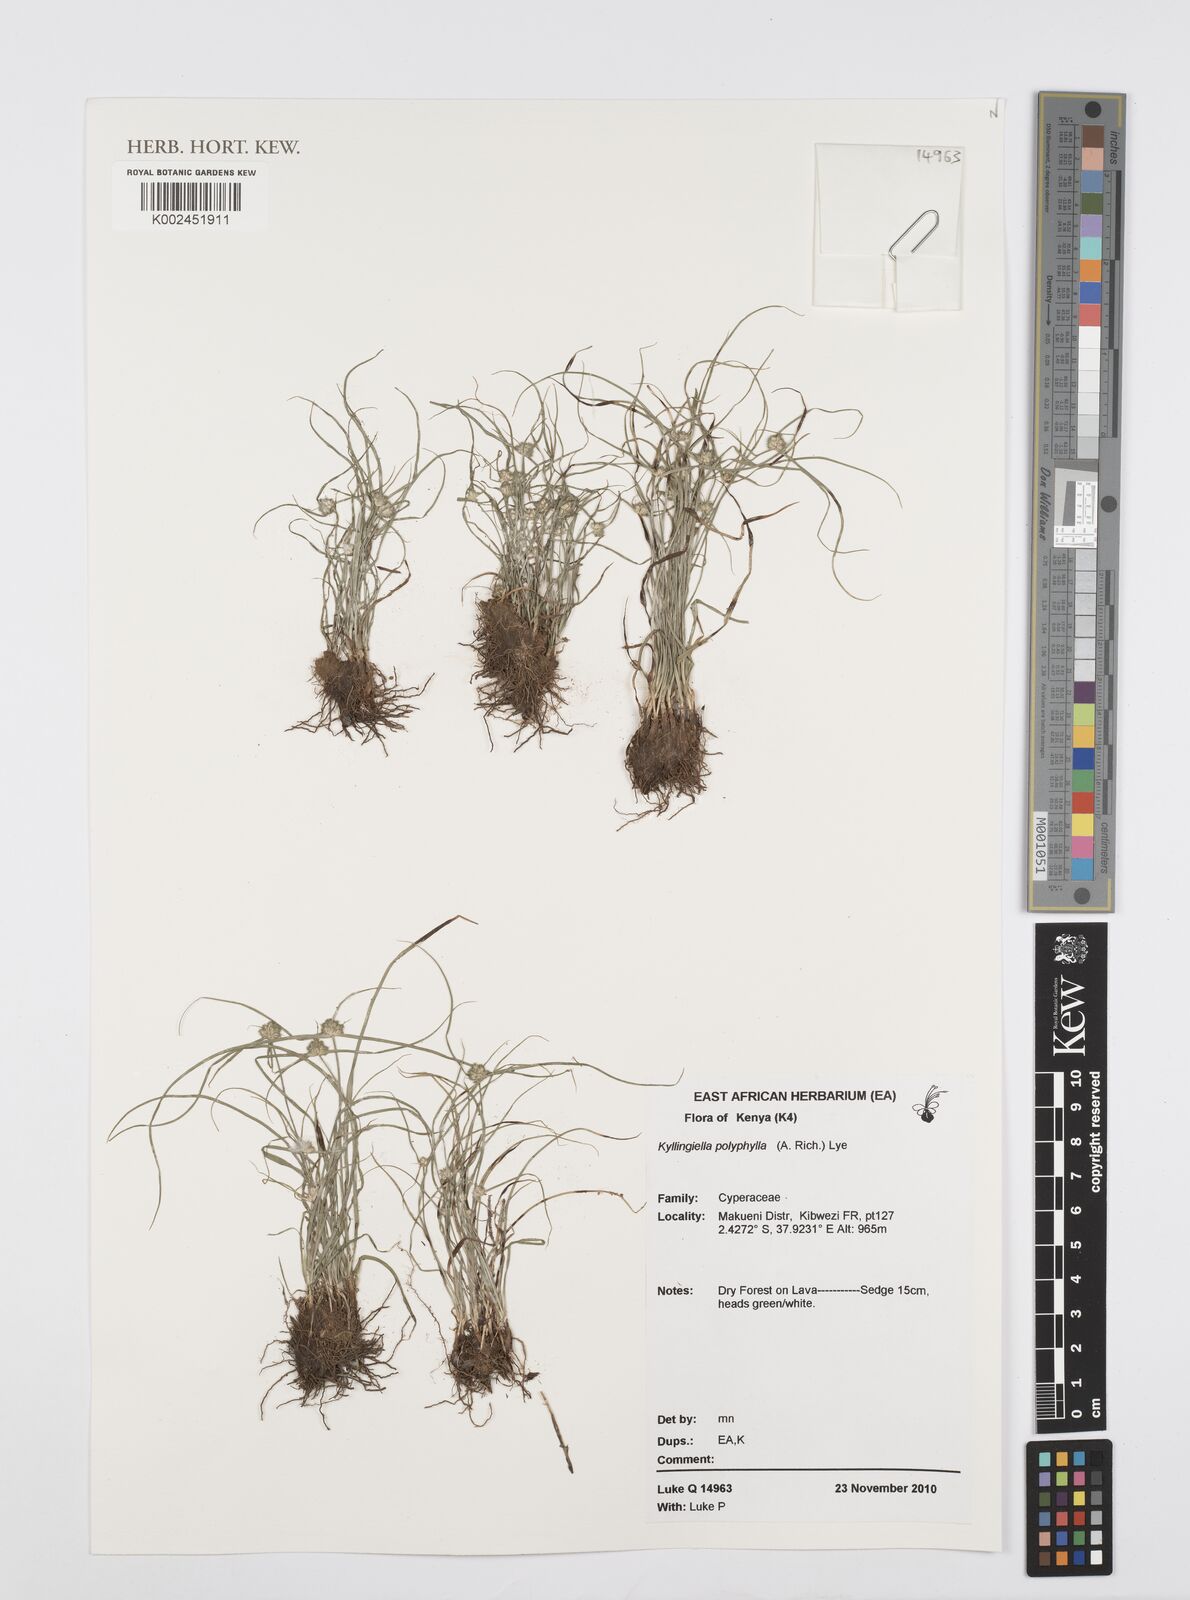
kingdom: Plantae
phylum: Tracheophyta
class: Liliopsida
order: Poales
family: Cyperaceae
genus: Cyperus
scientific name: Cyperus bulbosus
